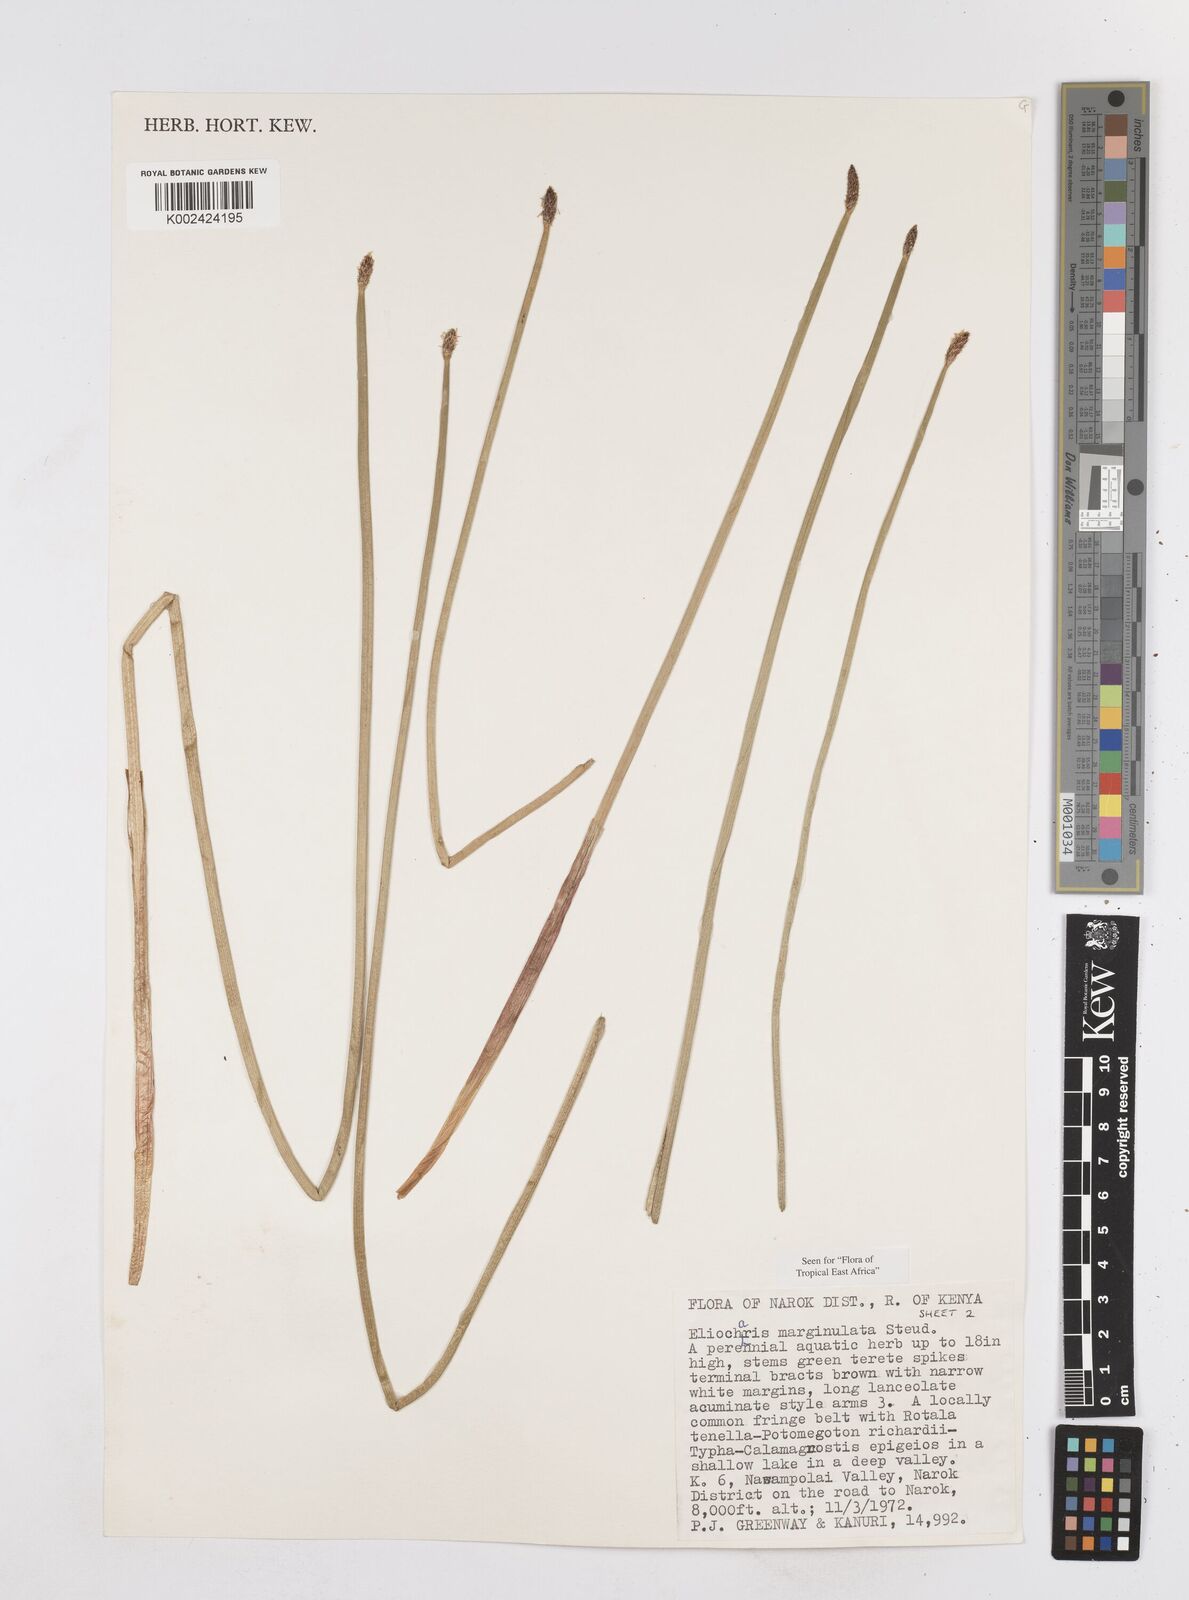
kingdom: Plantae
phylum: Tracheophyta
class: Liliopsida
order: Poales
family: Cyperaceae
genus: Eleocharis
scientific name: Eleocharis marginulata
